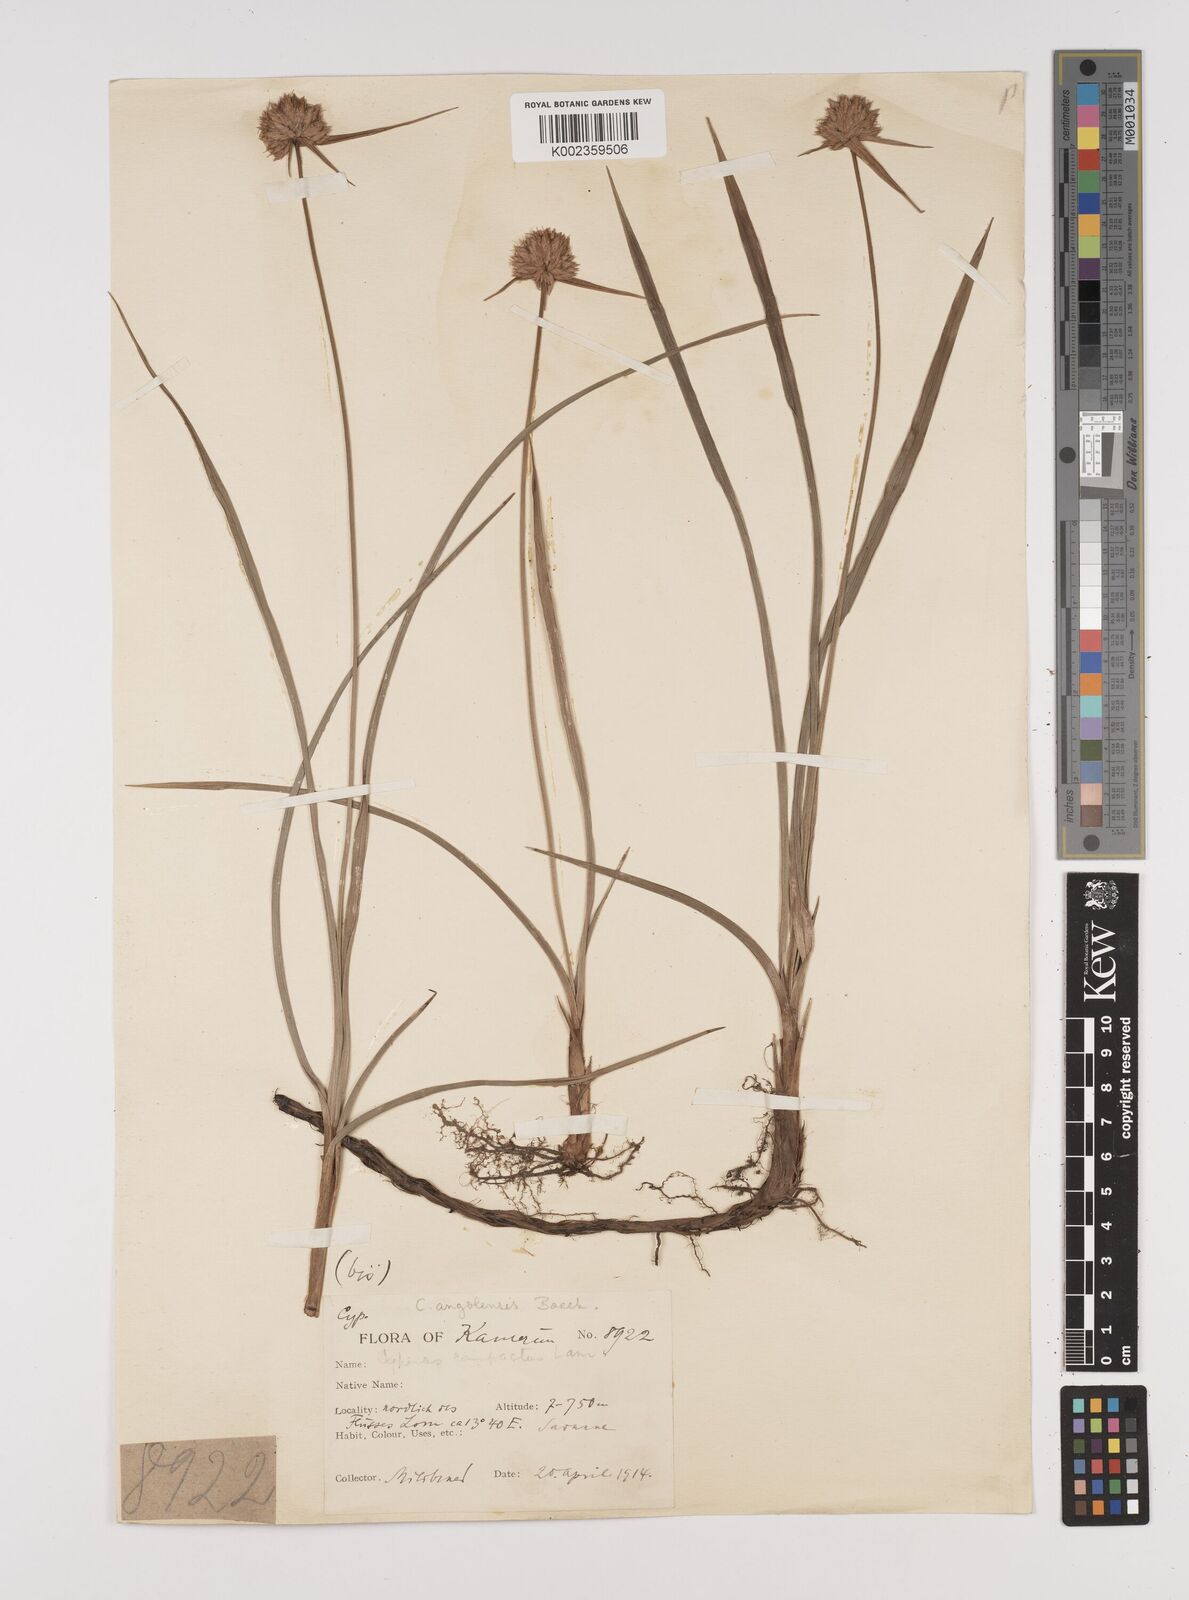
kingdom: Plantae
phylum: Tracheophyta
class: Liliopsida
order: Poales
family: Cyperaceae
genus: Cyperus
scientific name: Cyperus angolensis
